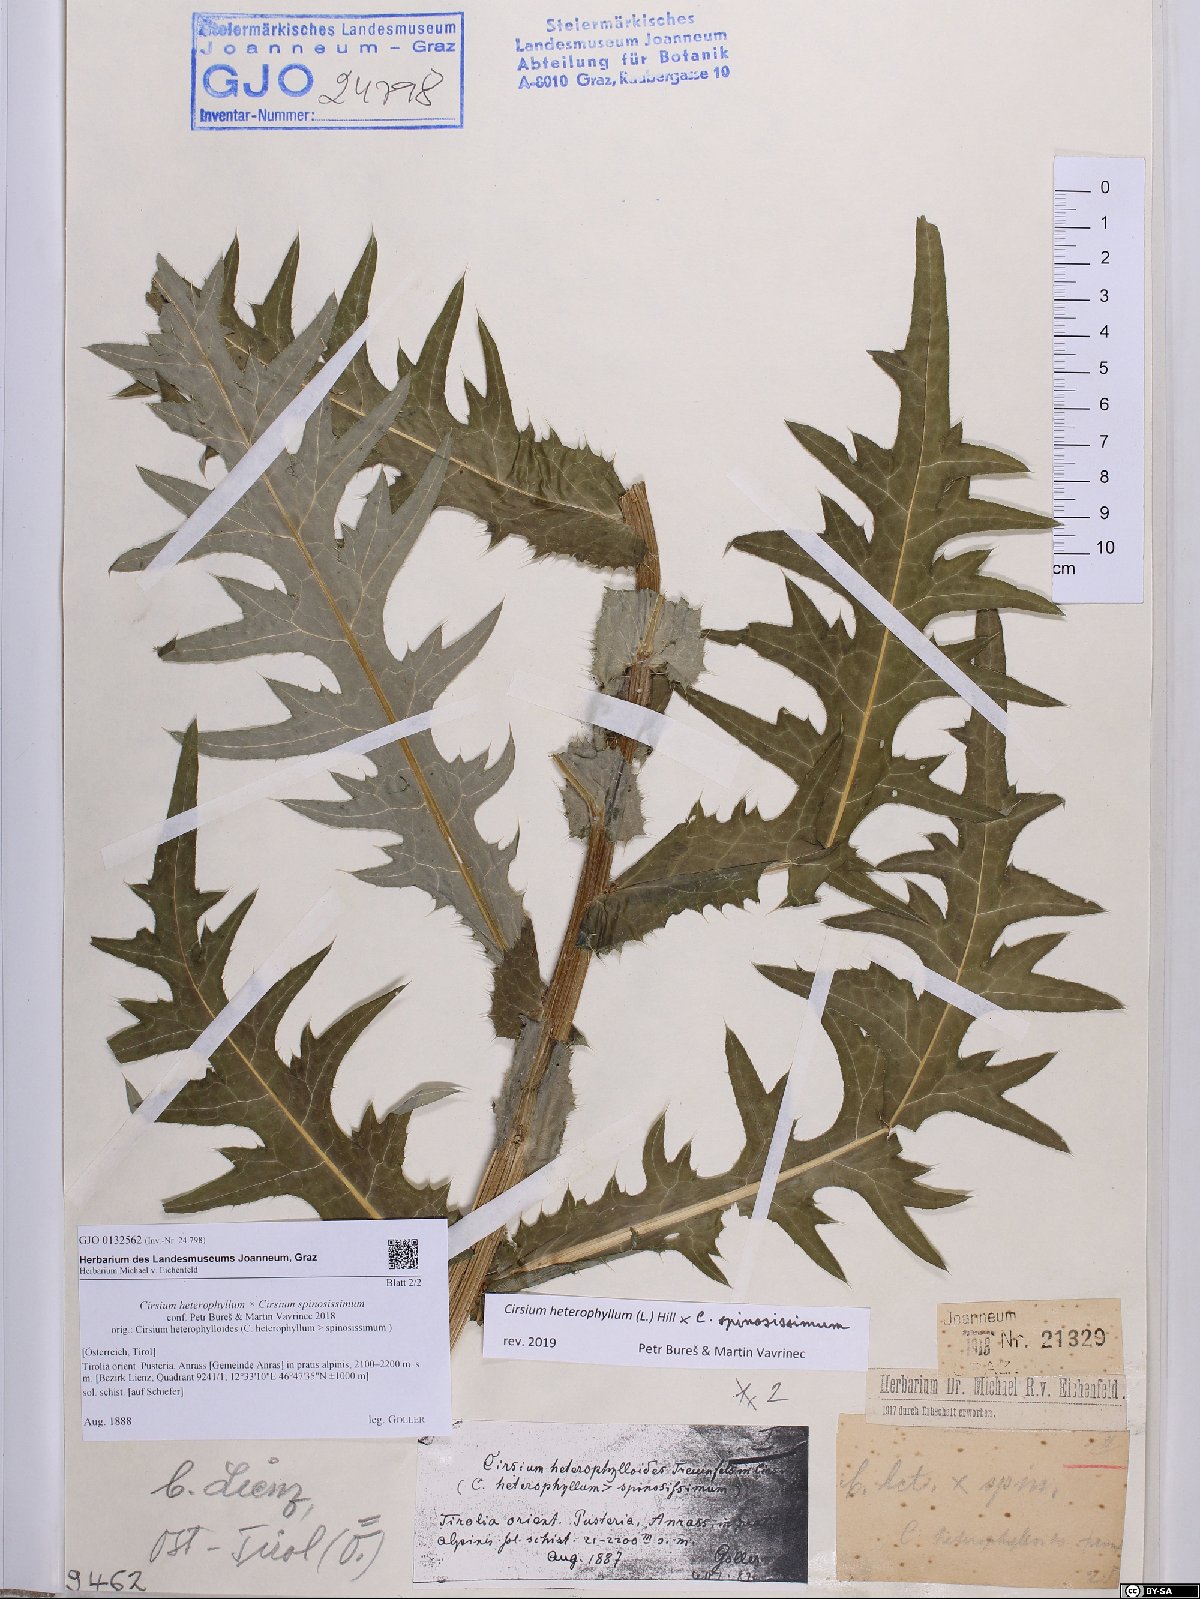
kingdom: Plantae
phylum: Tracheophyta
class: Magnoliopsida
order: Asterales
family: Asteraceae
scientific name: Asteraceae
